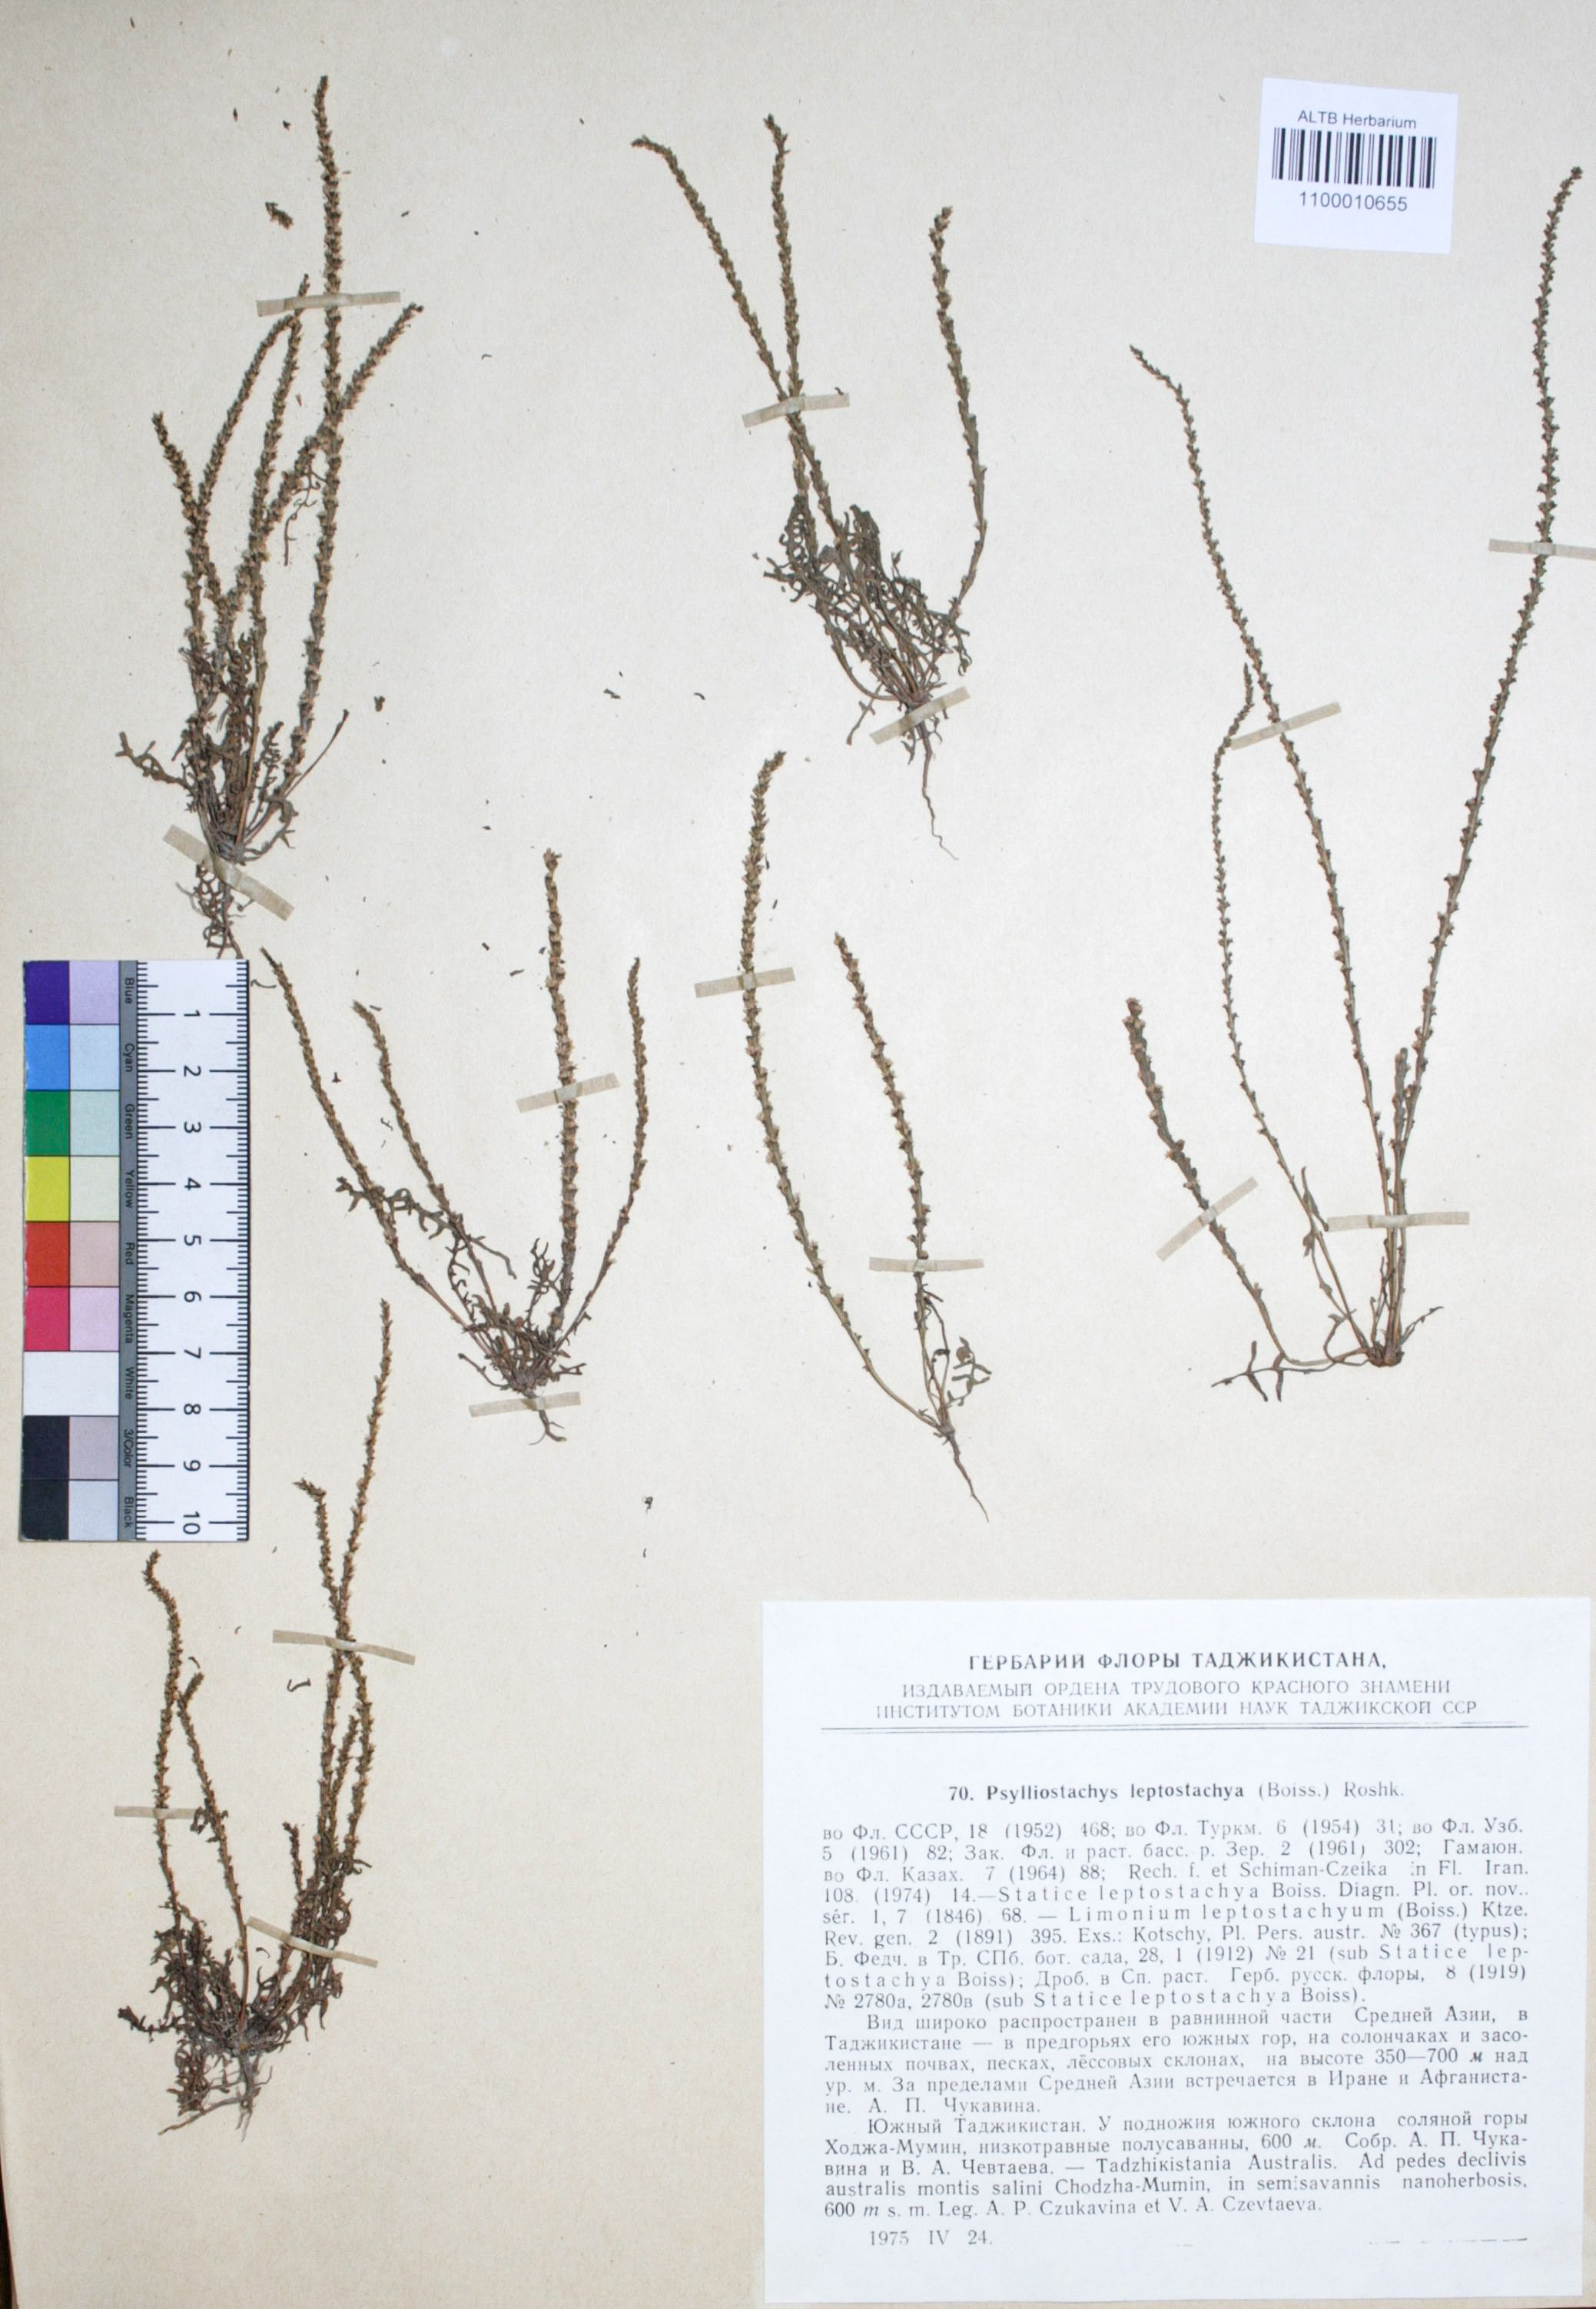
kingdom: Plantae
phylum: Tracheophyta
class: Magnoliopsida
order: Caryophyllales
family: Plumbaginaceae
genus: Psylliostachys
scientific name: Psylliostachys leptostachyus
